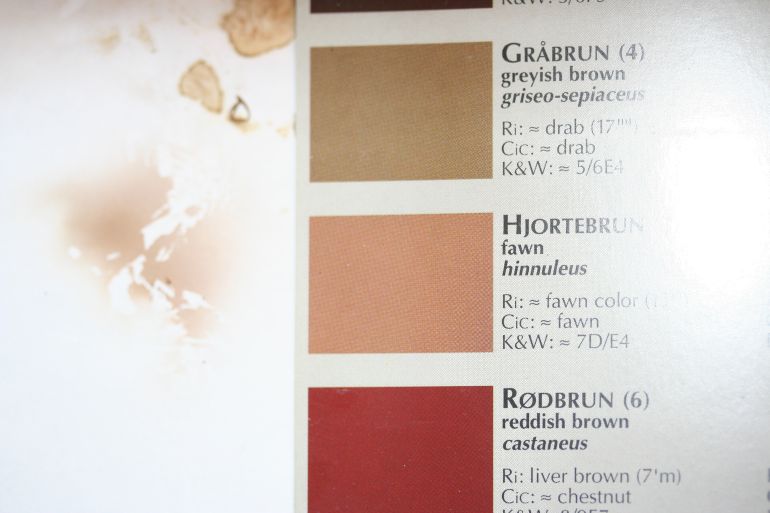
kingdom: Fungi
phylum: Basidiomycota
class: Agaricomycetes
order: Boletales
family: Paxillaceae
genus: Paxillus
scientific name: Paxillus obscurisporus
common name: mahognisporet netbladhat
